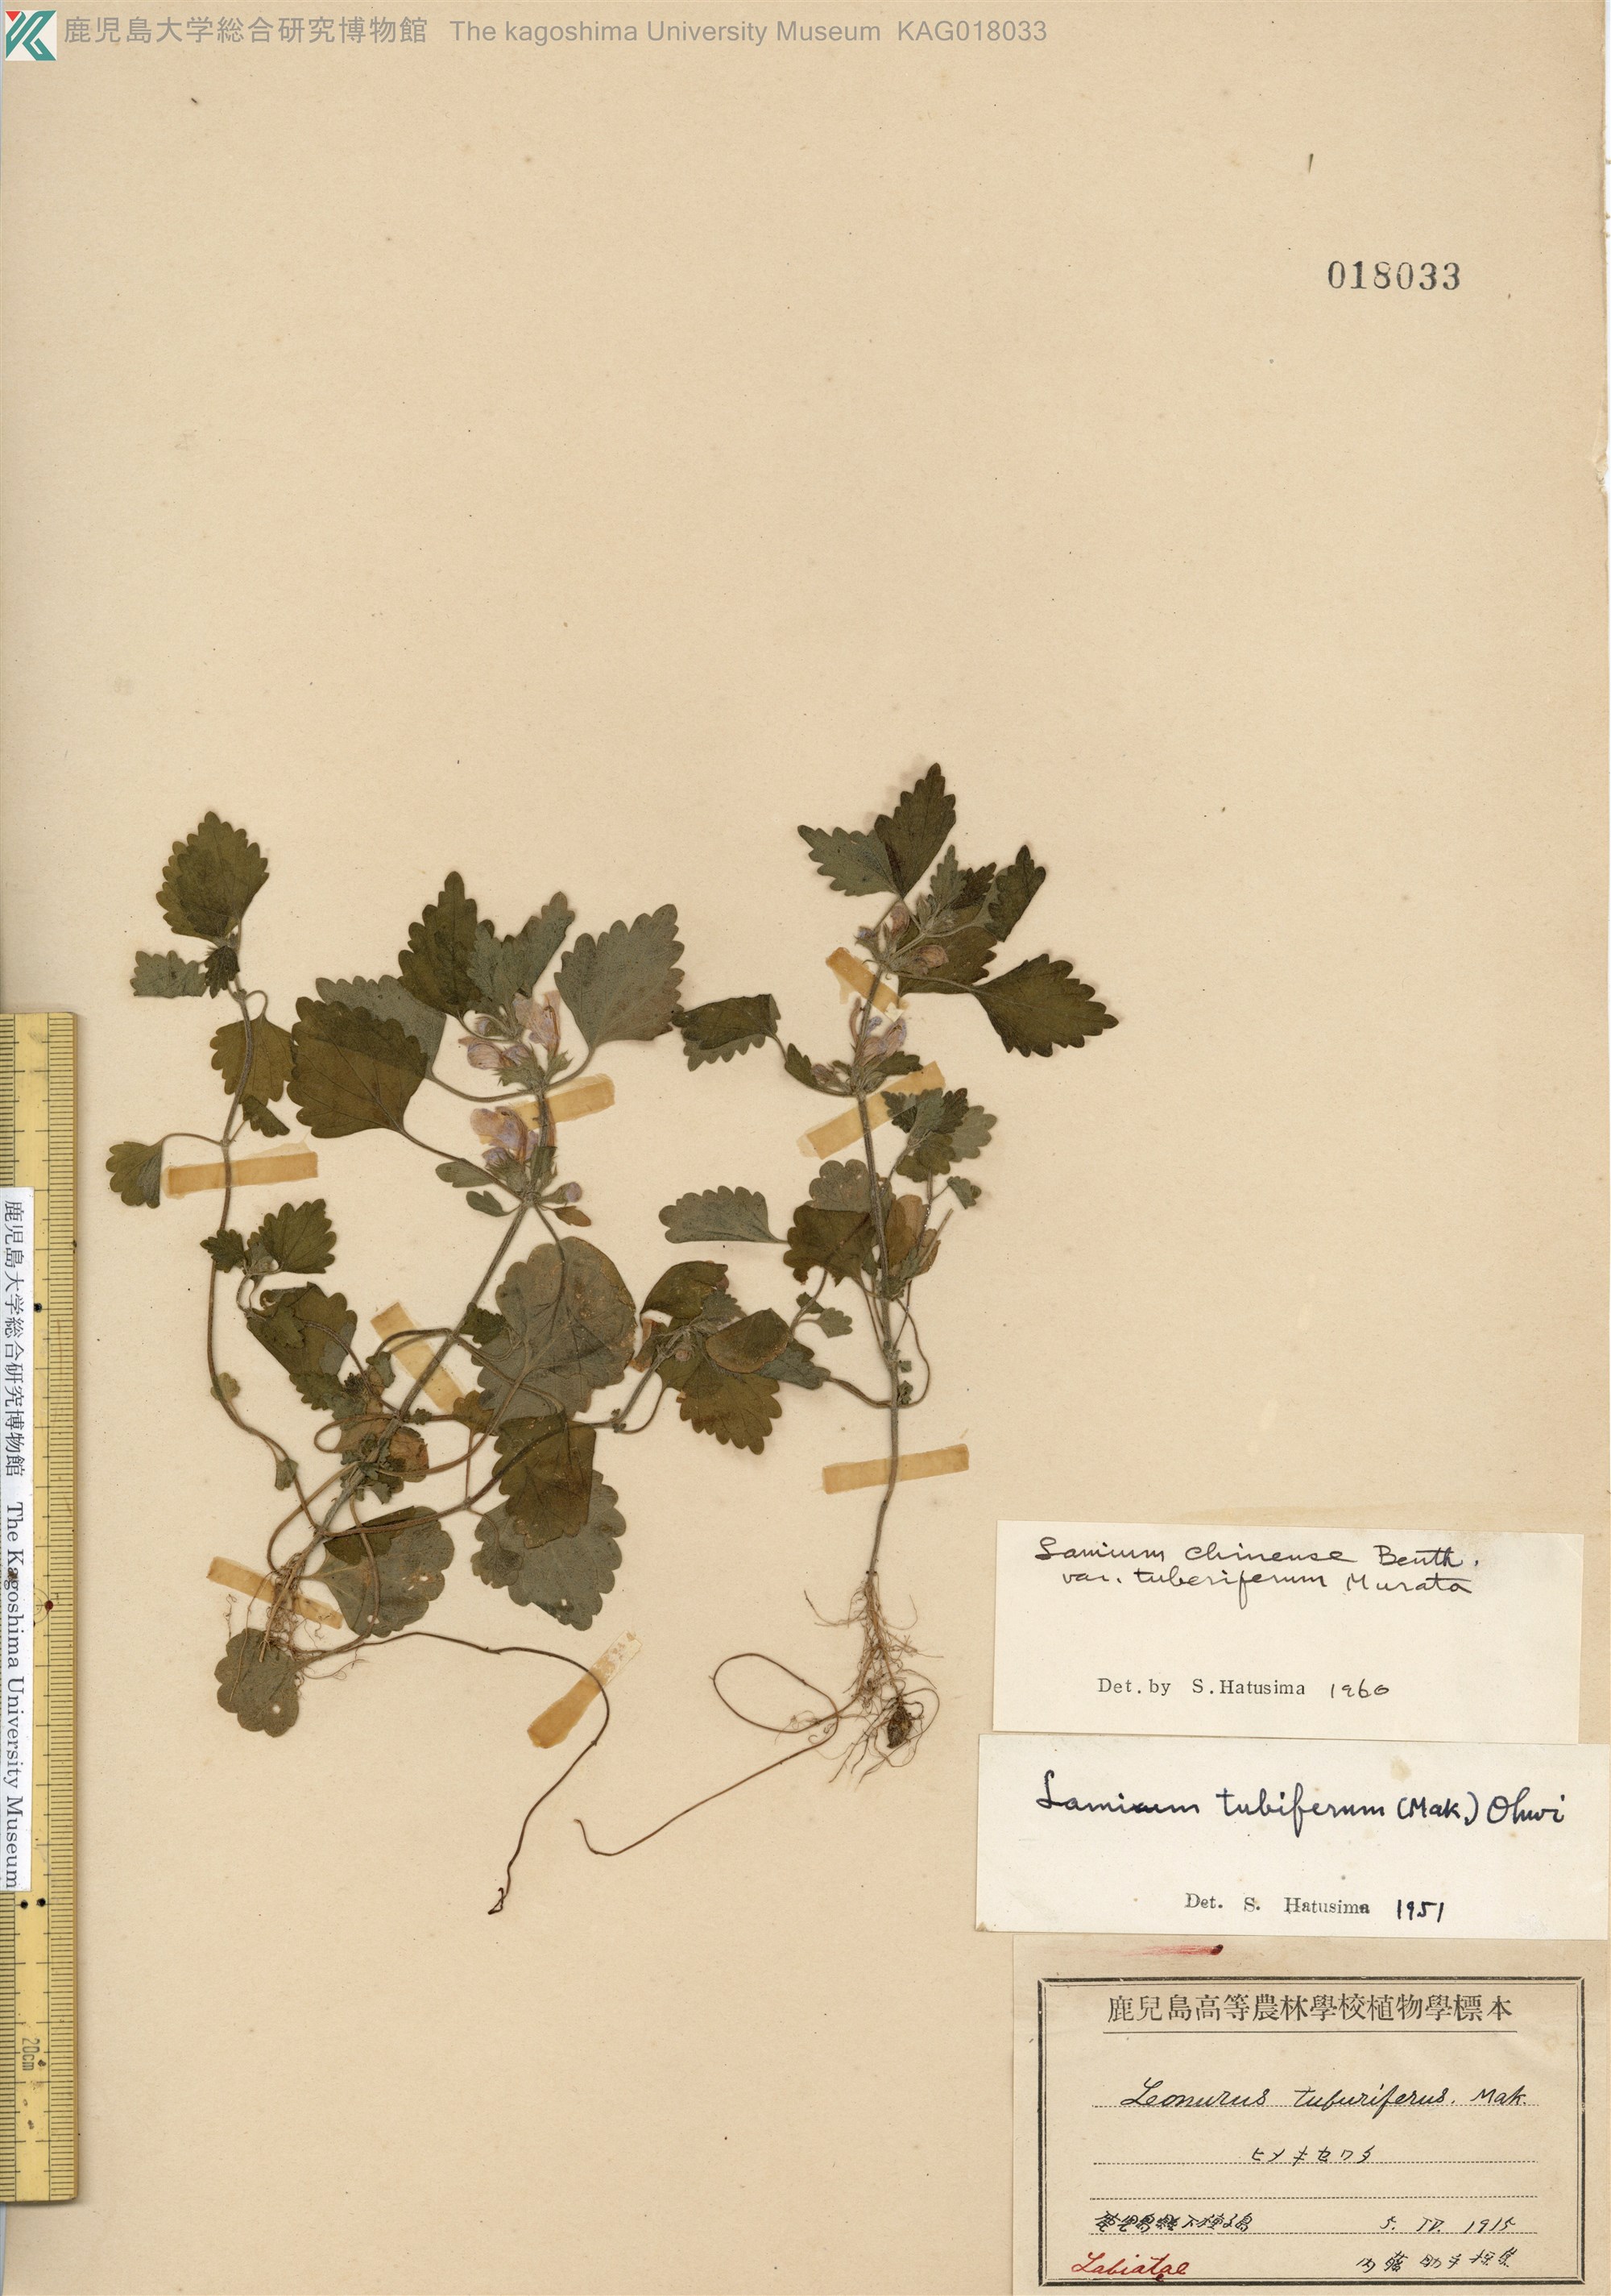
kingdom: Plantae
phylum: Tracheophyta
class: Magnoliopsida
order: Lamiales
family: Lamiaceae
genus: Matsumurella
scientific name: Matsumurella tuberifera
